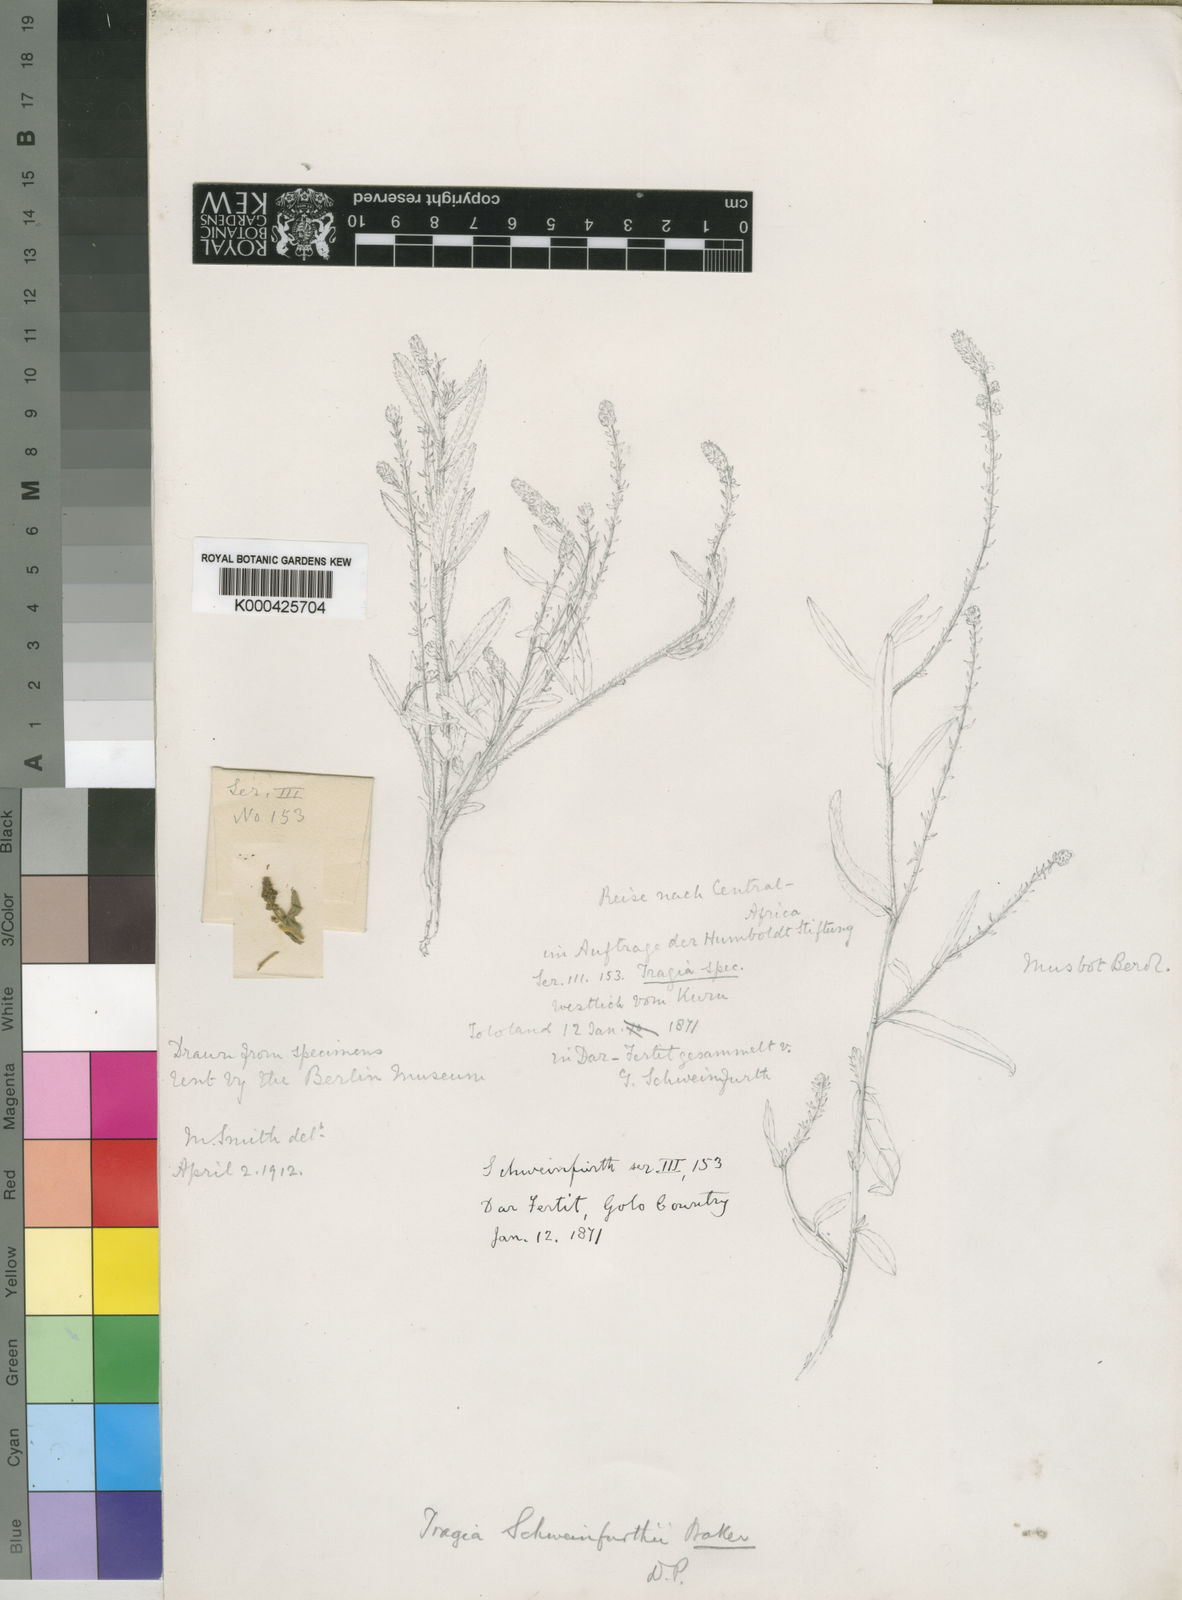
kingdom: Plantae
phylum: Tracheophyta
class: Magnoliopsida
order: Malpighiales
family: Euphorbiaceae
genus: Tragia
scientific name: Tragia schweinfurthii
